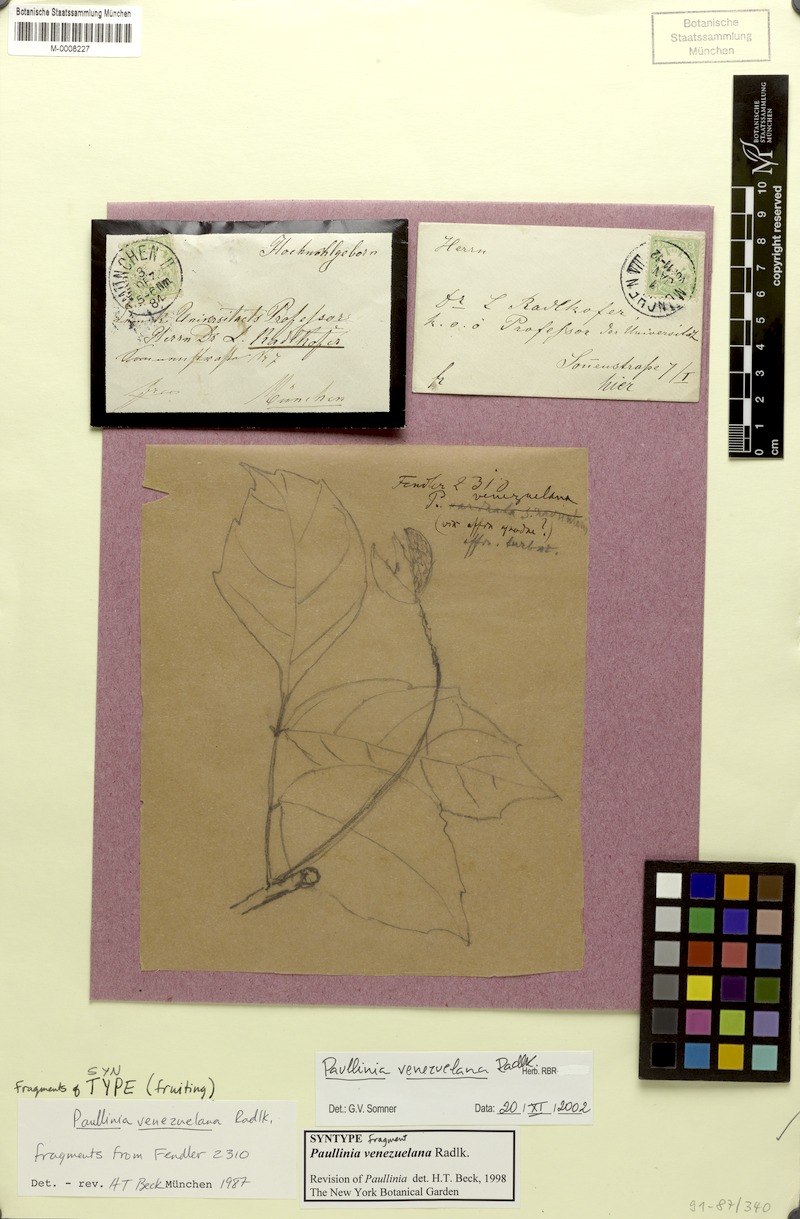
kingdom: Plantae
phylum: Tracheophyta
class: Magnoliopsida
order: Sapindales
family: Sapindaceae
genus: Paullinia
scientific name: Paullinia venezuelana
